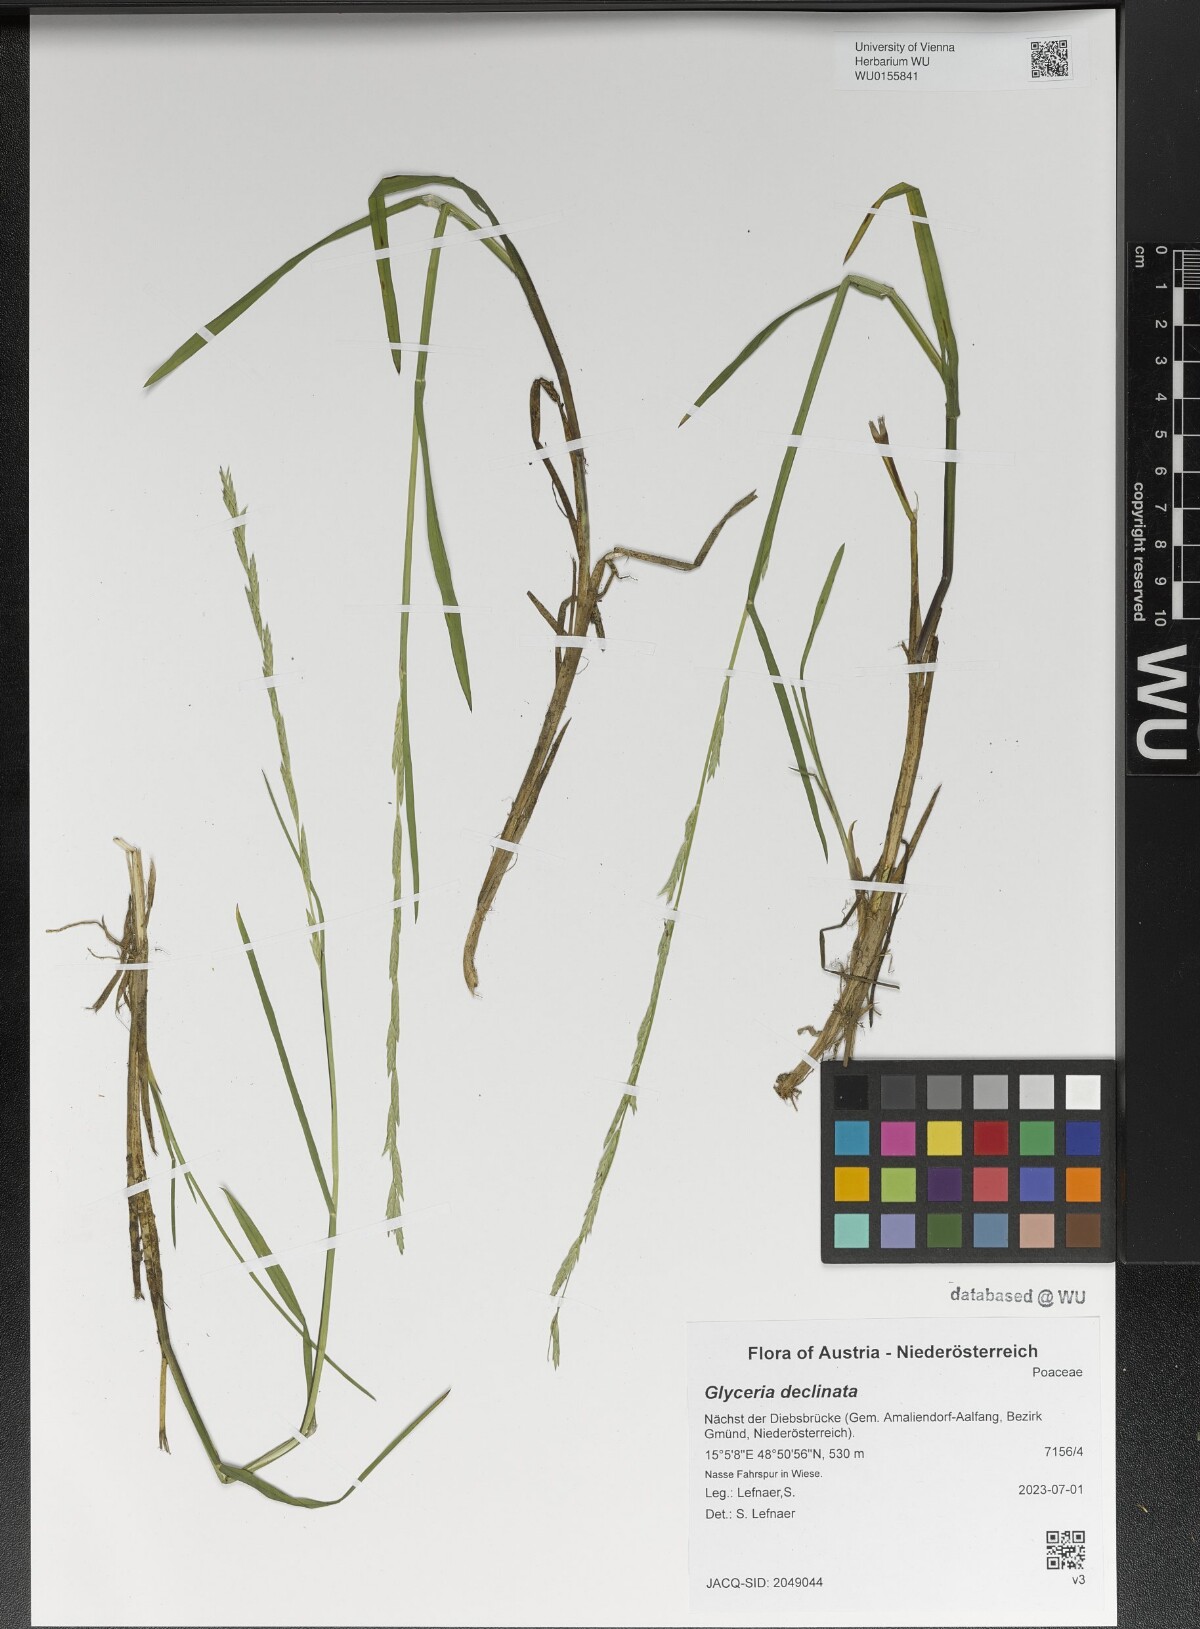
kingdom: Plantae
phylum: Tracheophyta
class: Liliopsida
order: Poales
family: Poaceae
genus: Glyceria
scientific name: Glyceria declinata
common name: Small sweet-grass
